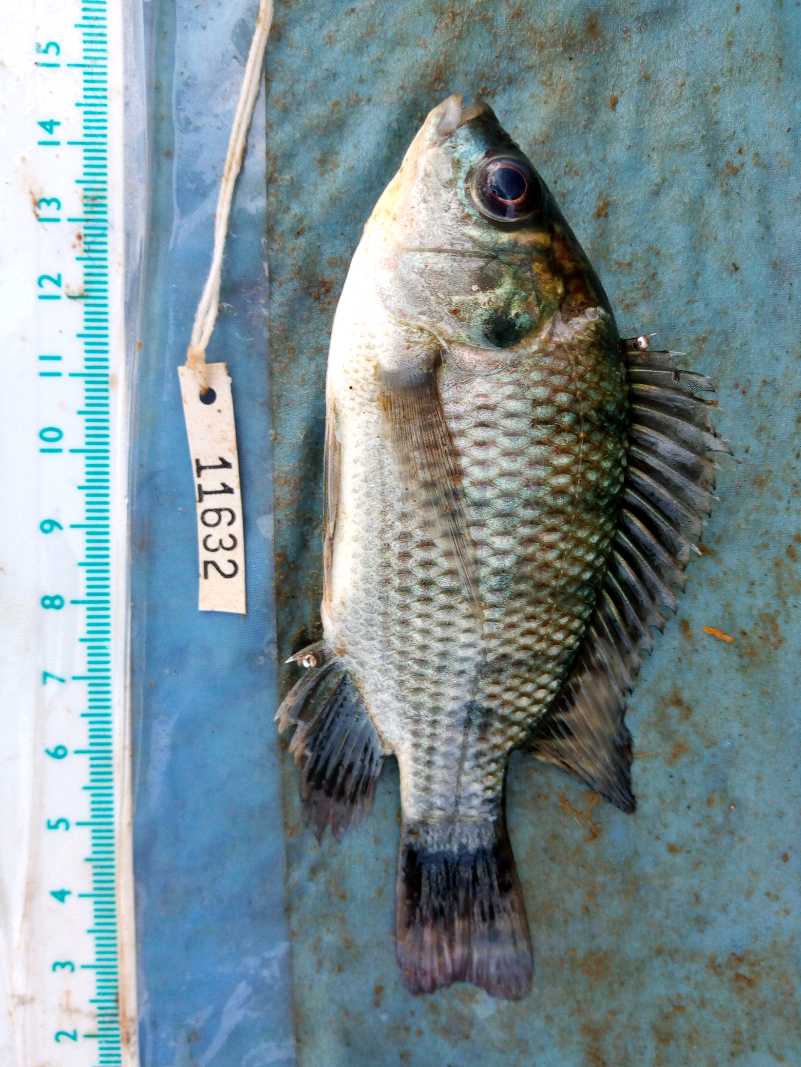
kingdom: Animalia
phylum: Chordata
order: Perciformes
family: Cichlidae
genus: Oreochromis
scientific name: Oreochromis niloticus
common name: Nile tilapia
